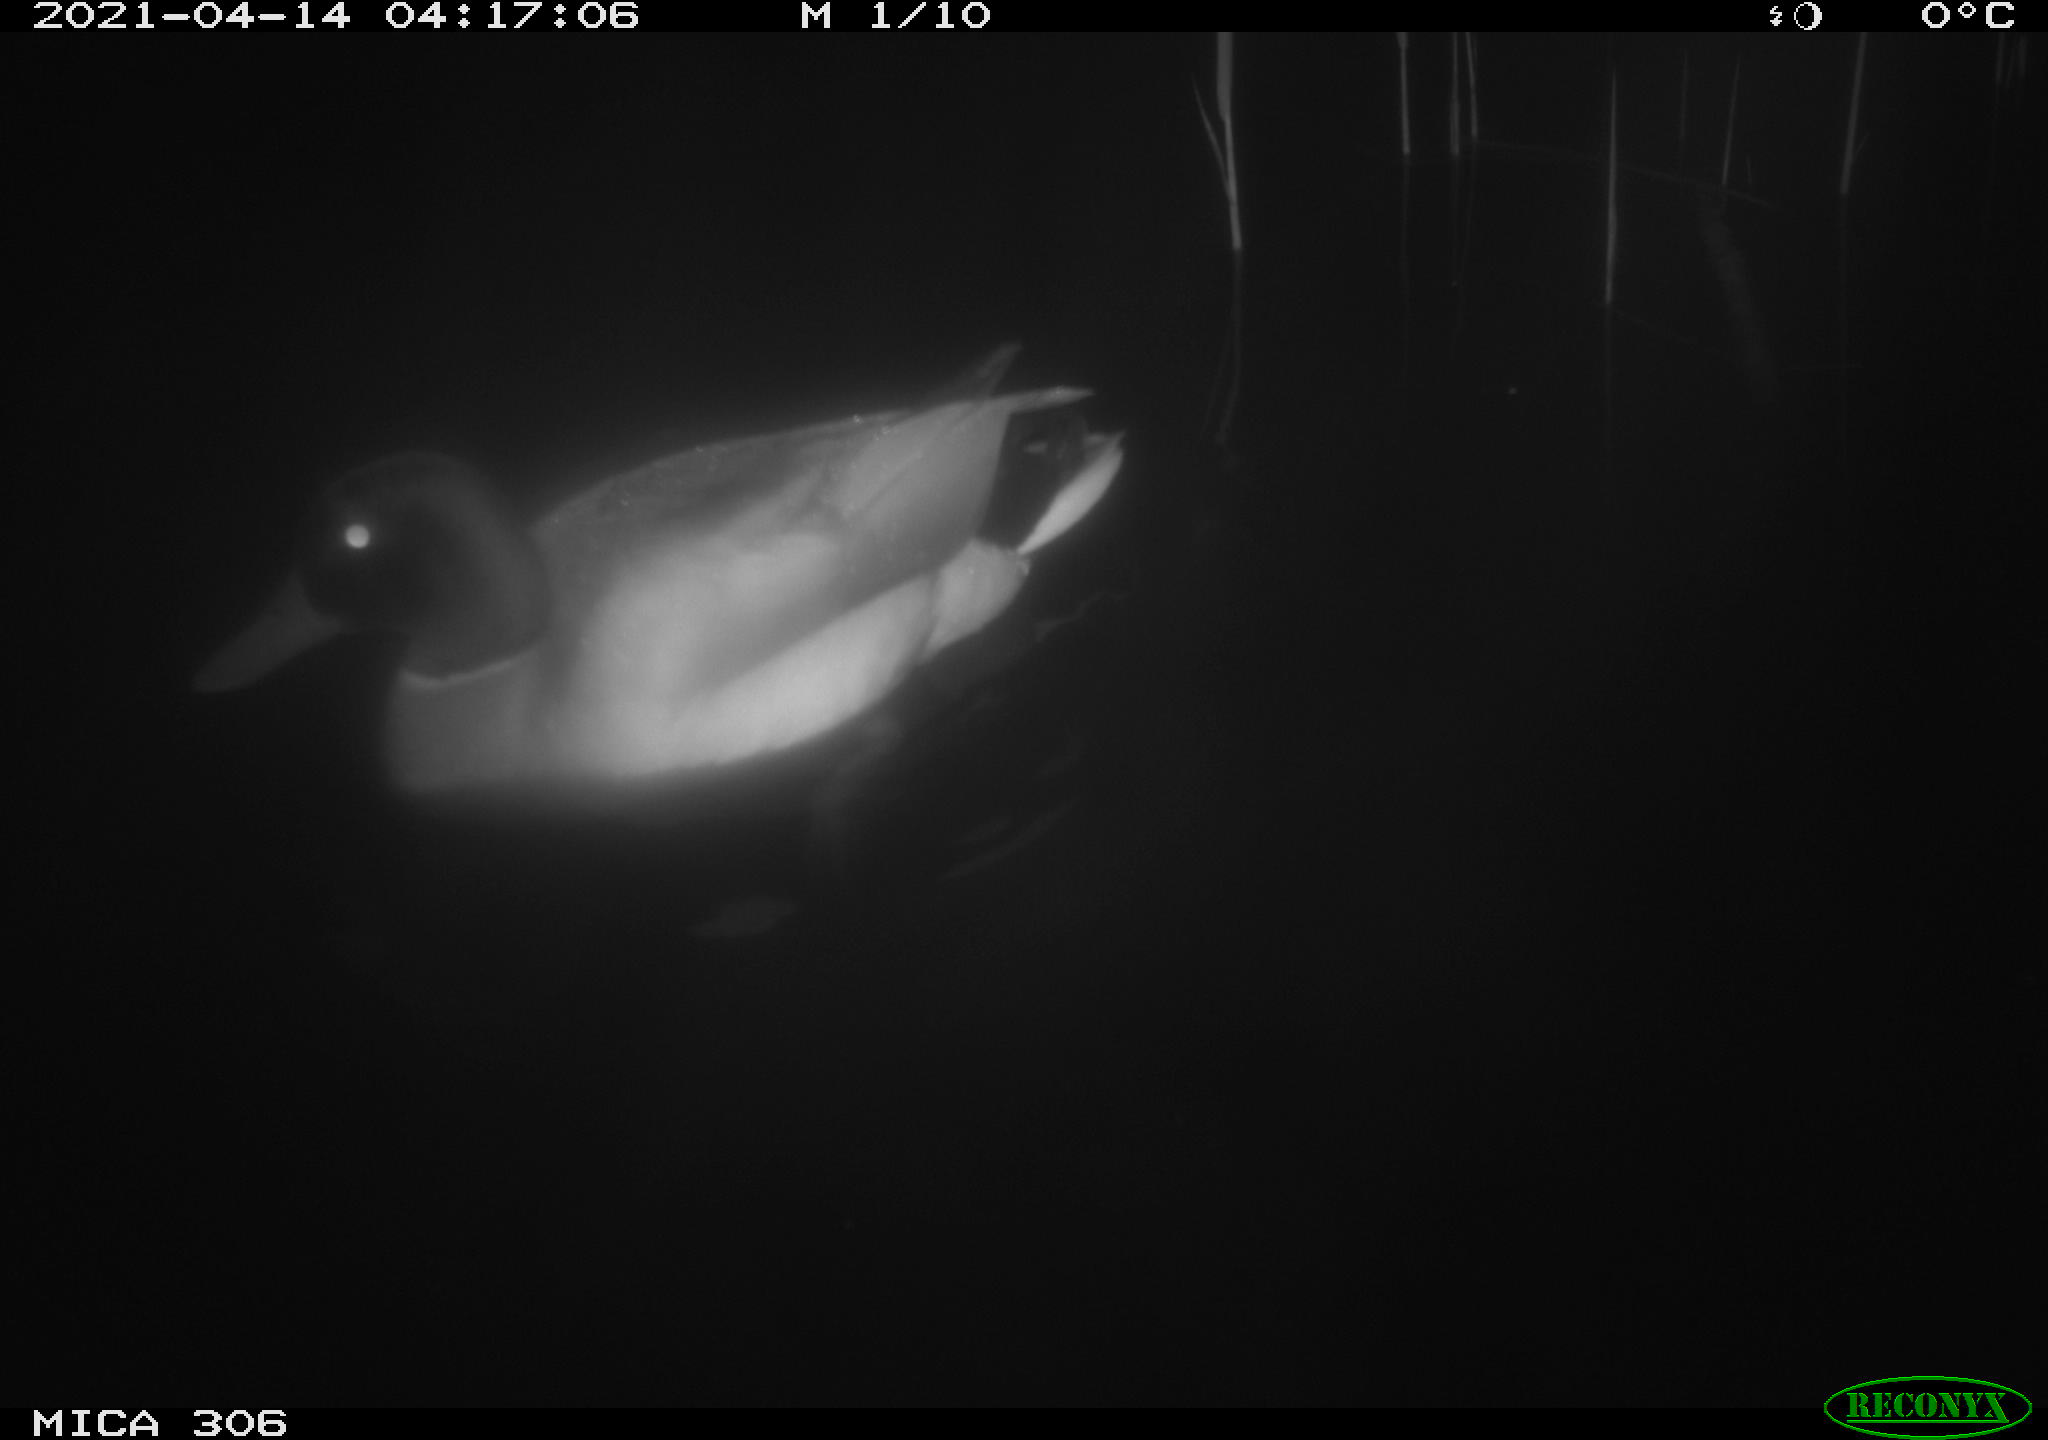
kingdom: Animalia
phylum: Chordata
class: Aves
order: Anseriformes
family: Anatidae
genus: Anas
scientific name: Anas
